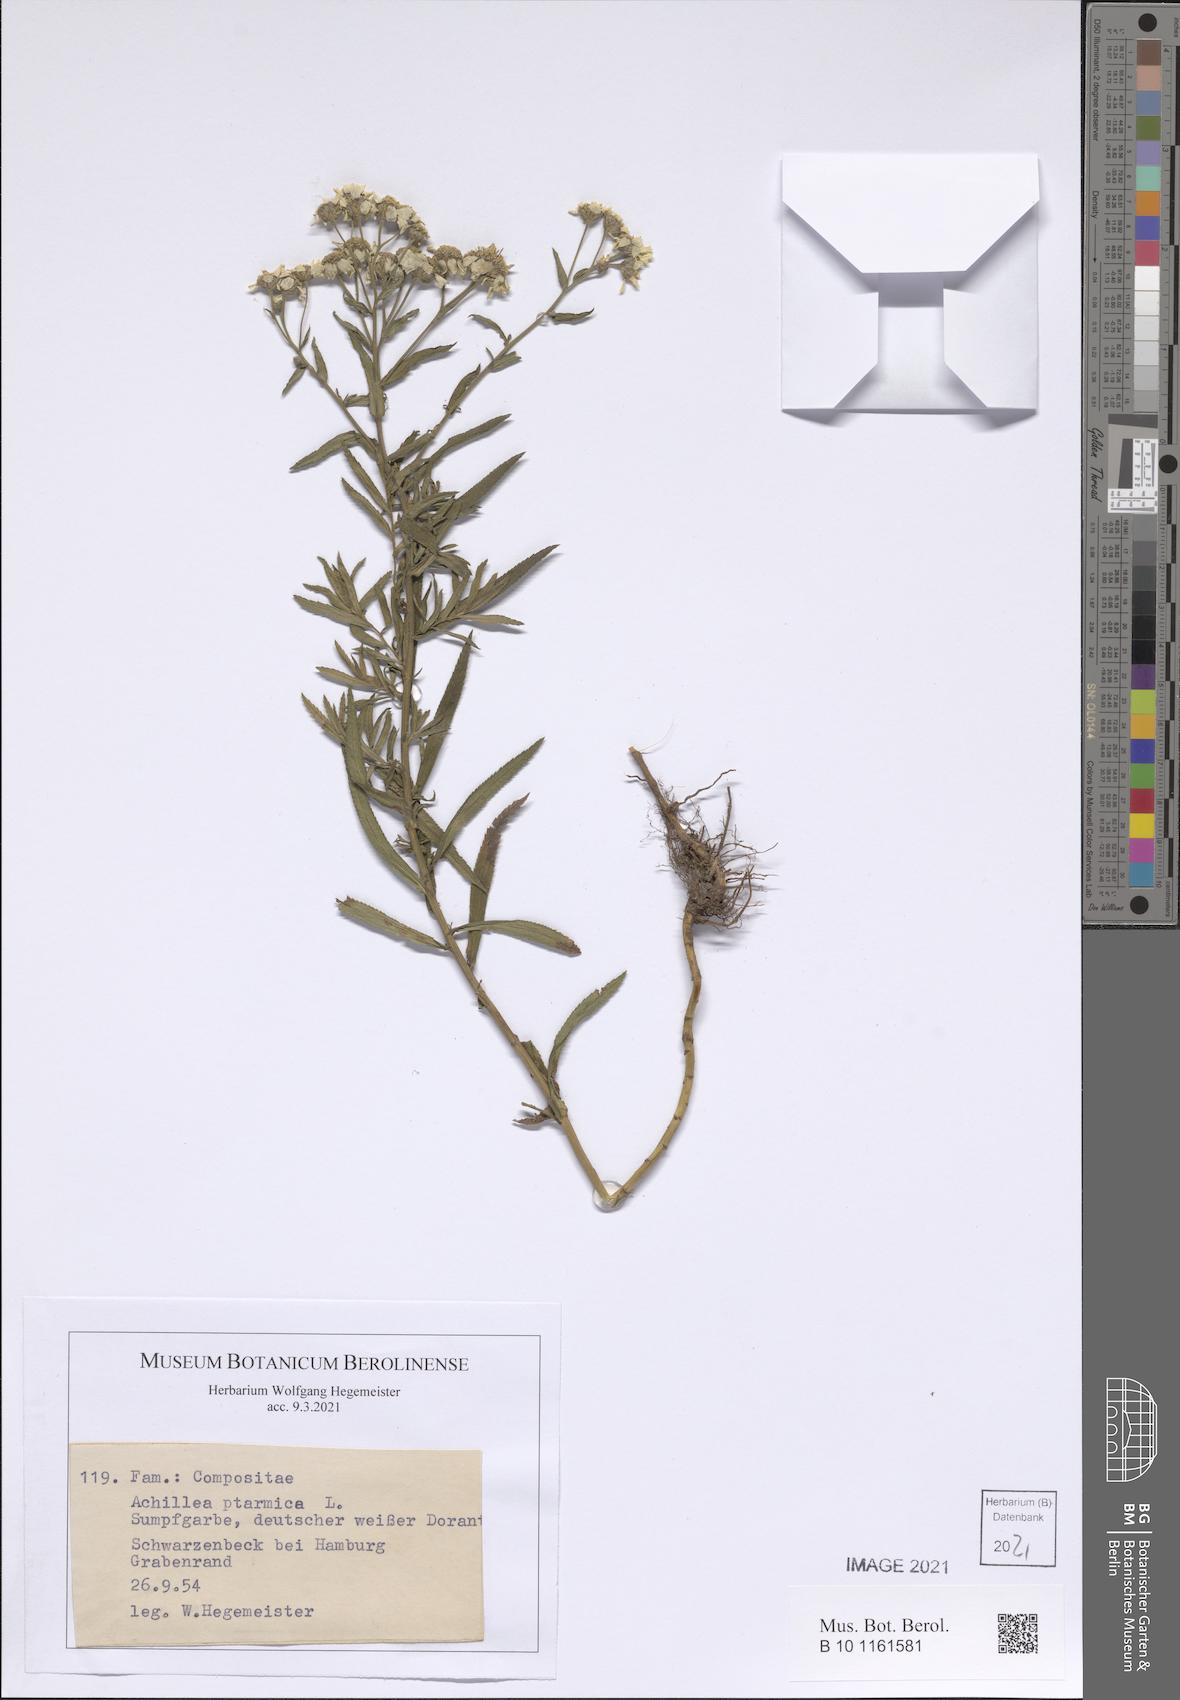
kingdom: Plantae
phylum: Tracheophyta
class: Magnoliopsida
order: Asterales
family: Asteraceae
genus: Achillea
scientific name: Achillea ptarmica
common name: Sneezeweed
